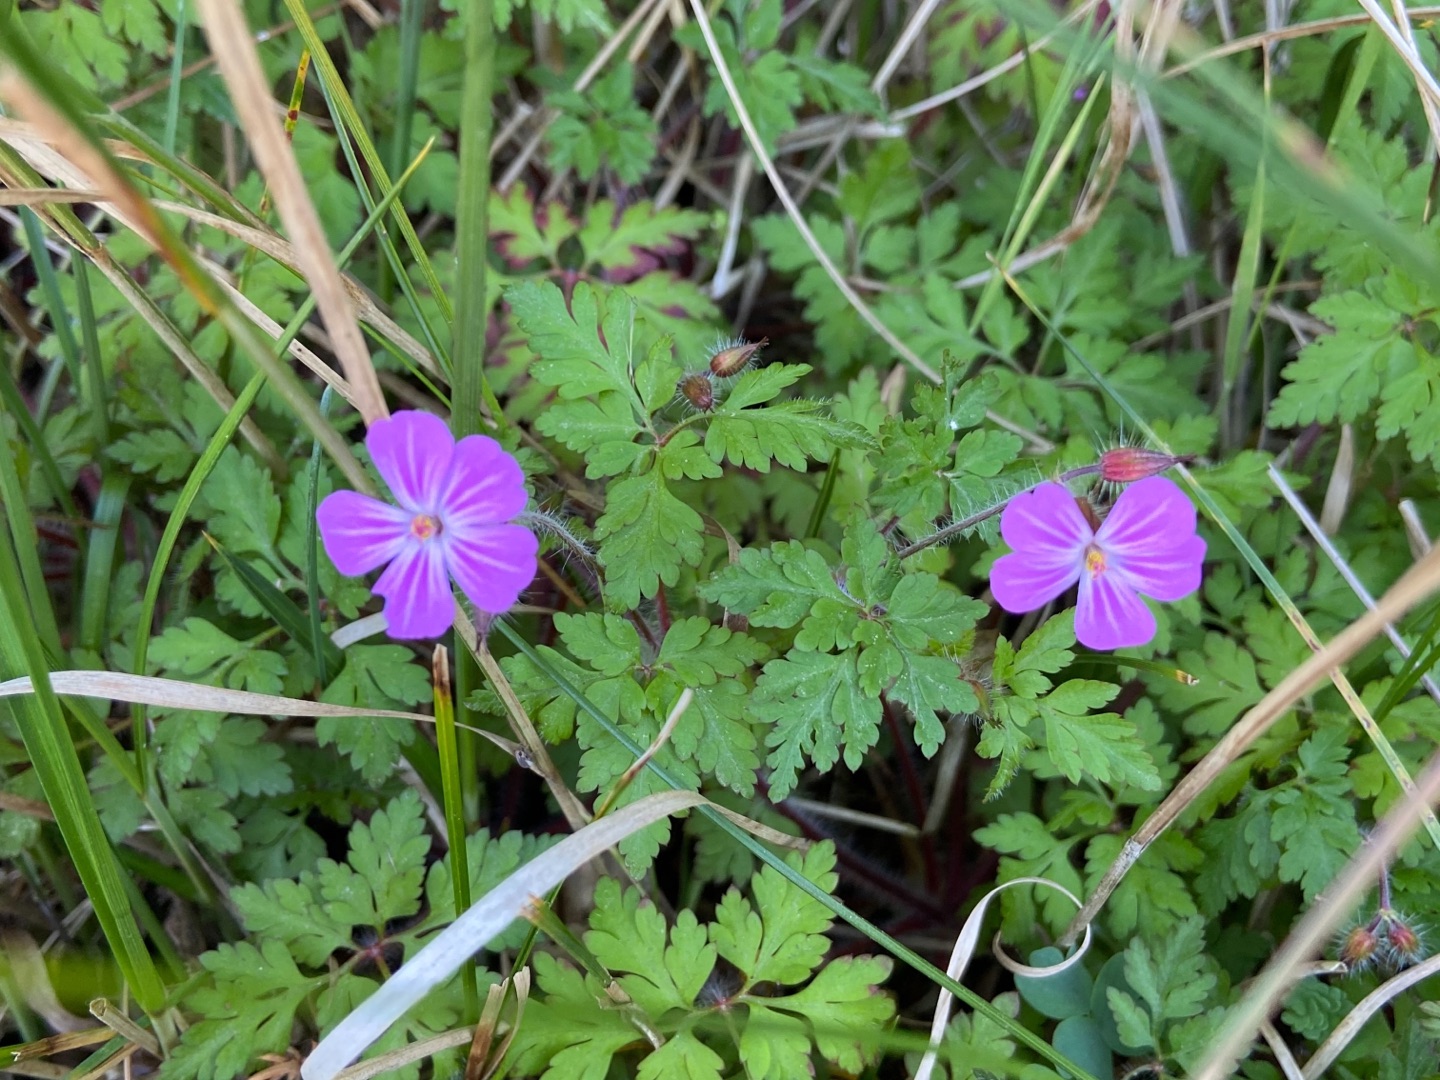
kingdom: Plantae
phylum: Tracheophyta
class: Magnoliopsida
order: Geraniales
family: Geraniaceae
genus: Geranium
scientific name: Geranium robertianum
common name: Stinkende storkenæb
